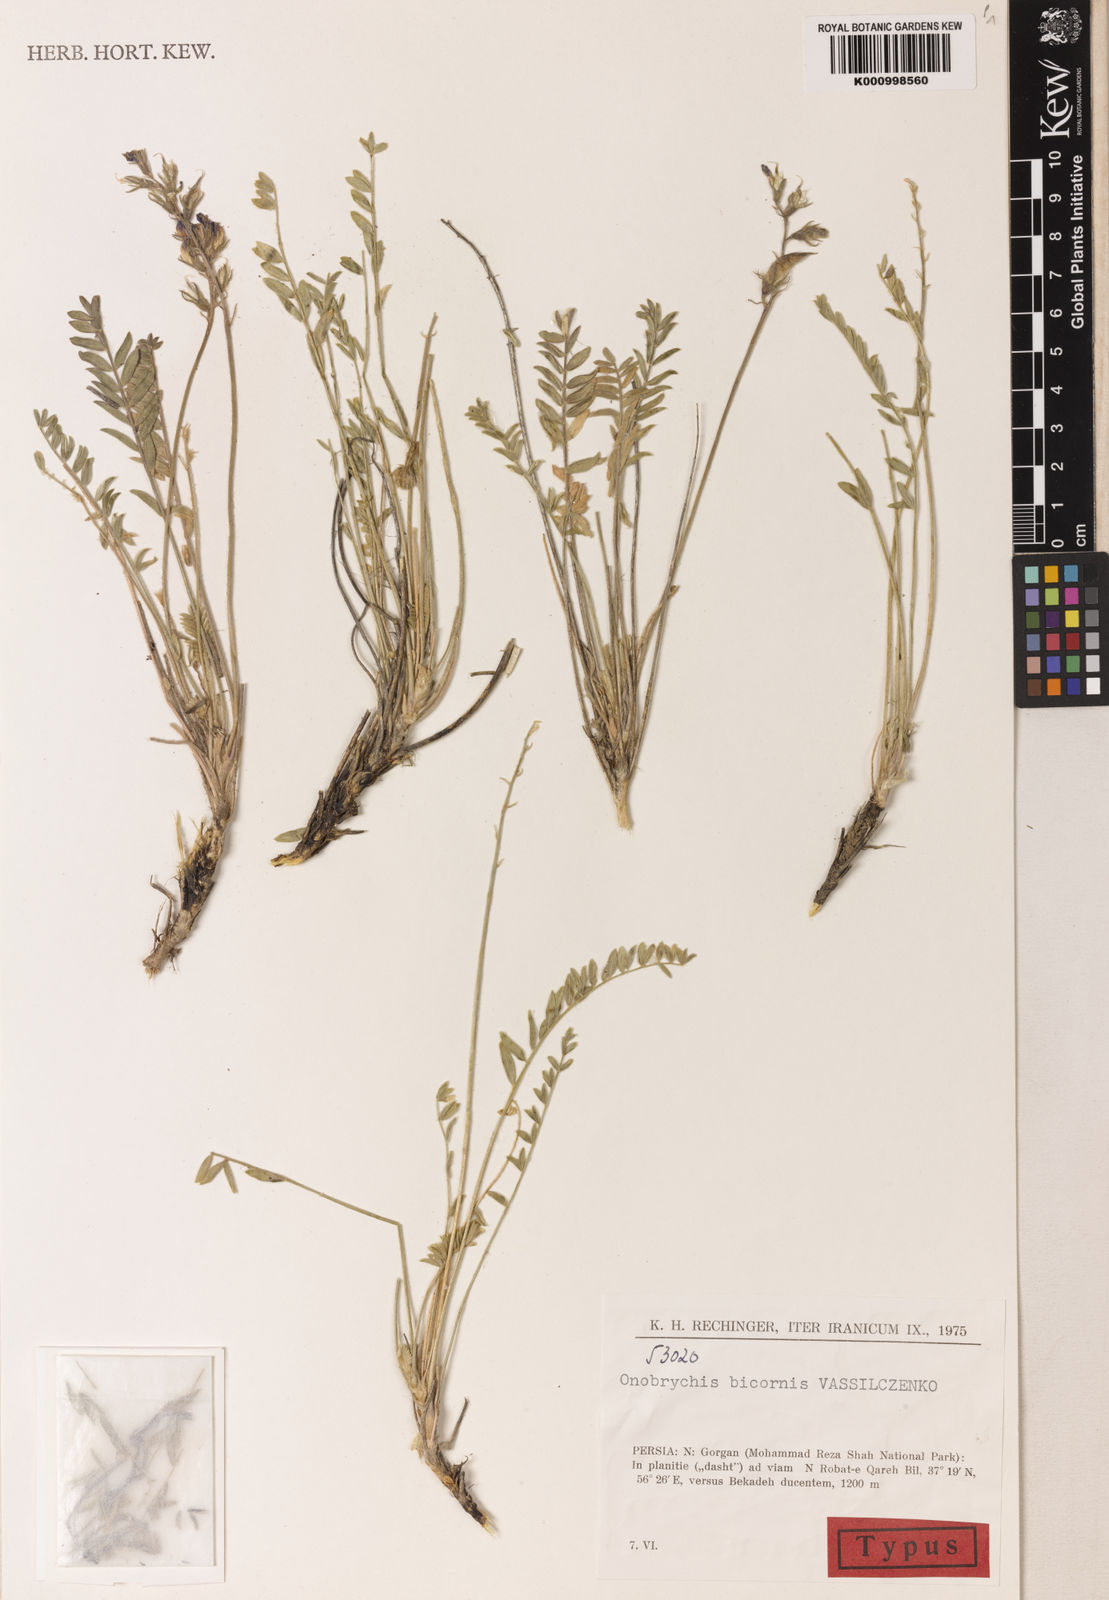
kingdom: Plantae
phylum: Tracheophyta
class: Magnoliopsida
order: Fabales
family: Fabaceae
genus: Onobrychis
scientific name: Onobrychis
